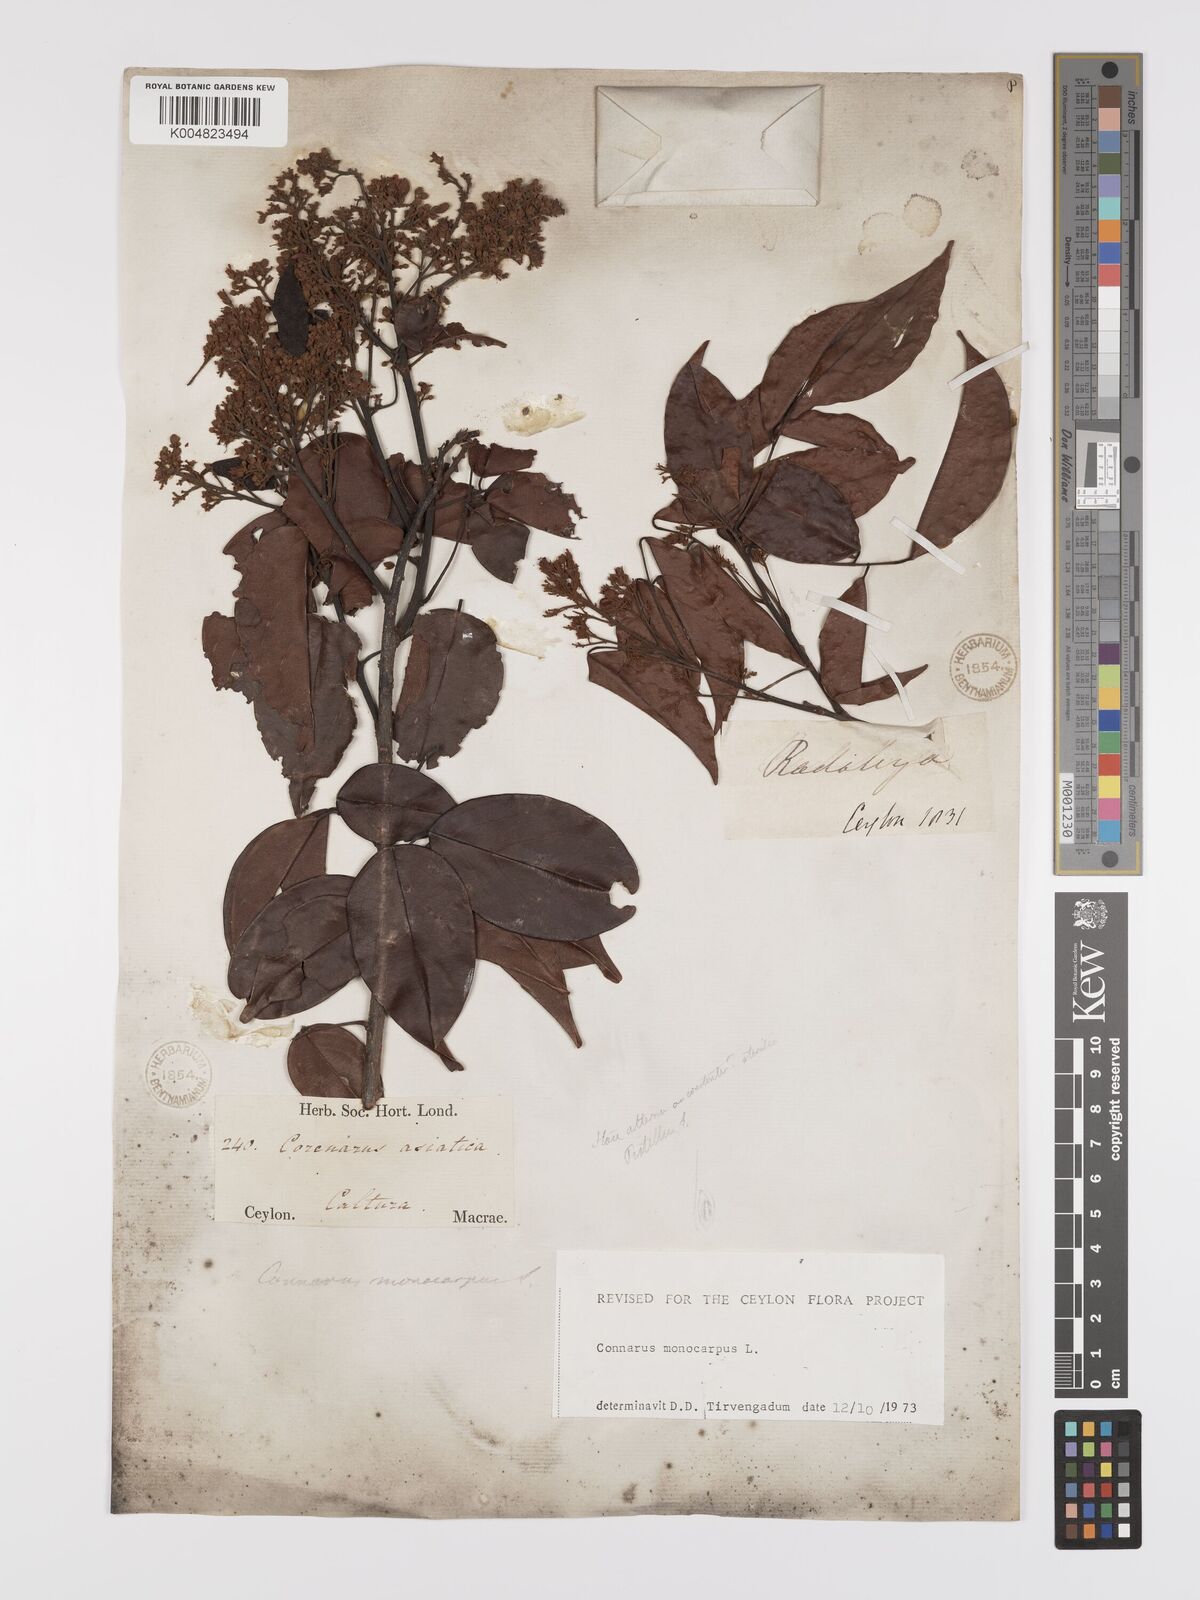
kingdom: Plantae
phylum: Tracheophyta
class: Magnoliopsida
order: Oxalidales
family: Connaraceae
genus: Connarus
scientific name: Connarus semidecandrus
